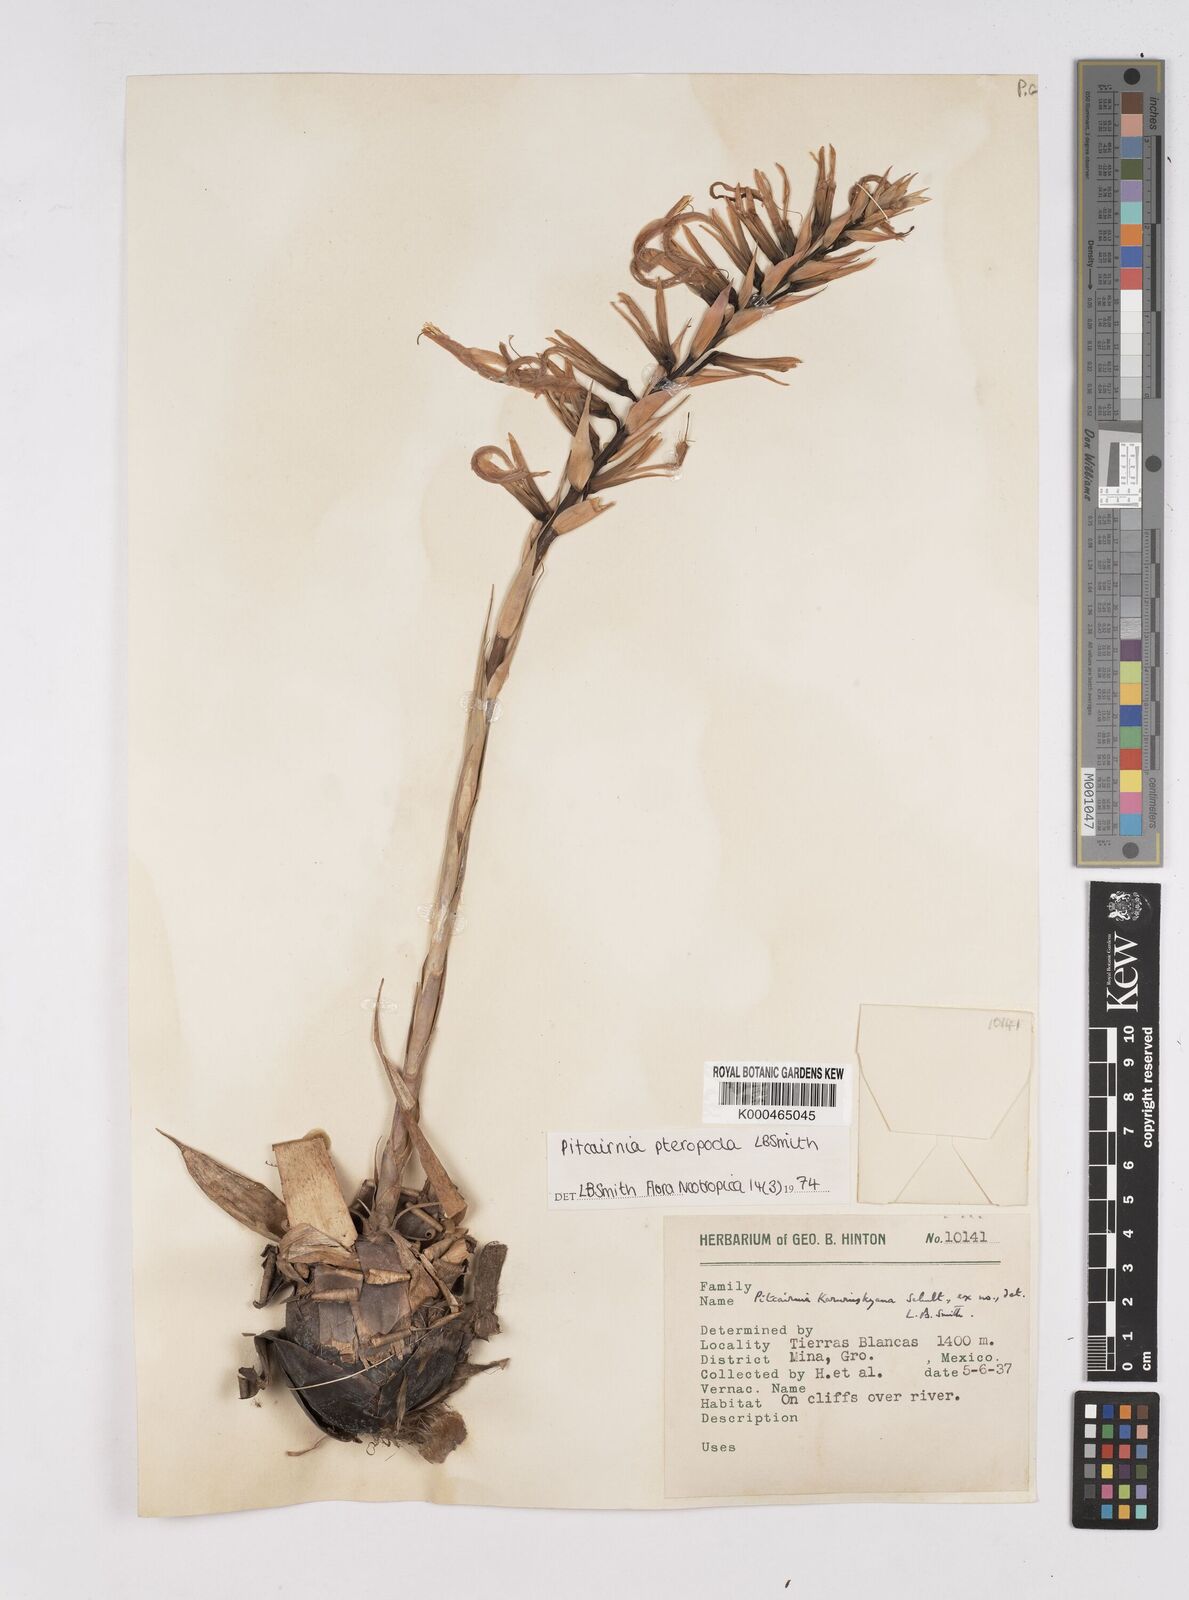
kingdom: Plantae
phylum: Tracheophyta
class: Liliopsida
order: Poales
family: Bromeliaceae
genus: Pitcairnia
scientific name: Pitcairnia pteropoda
